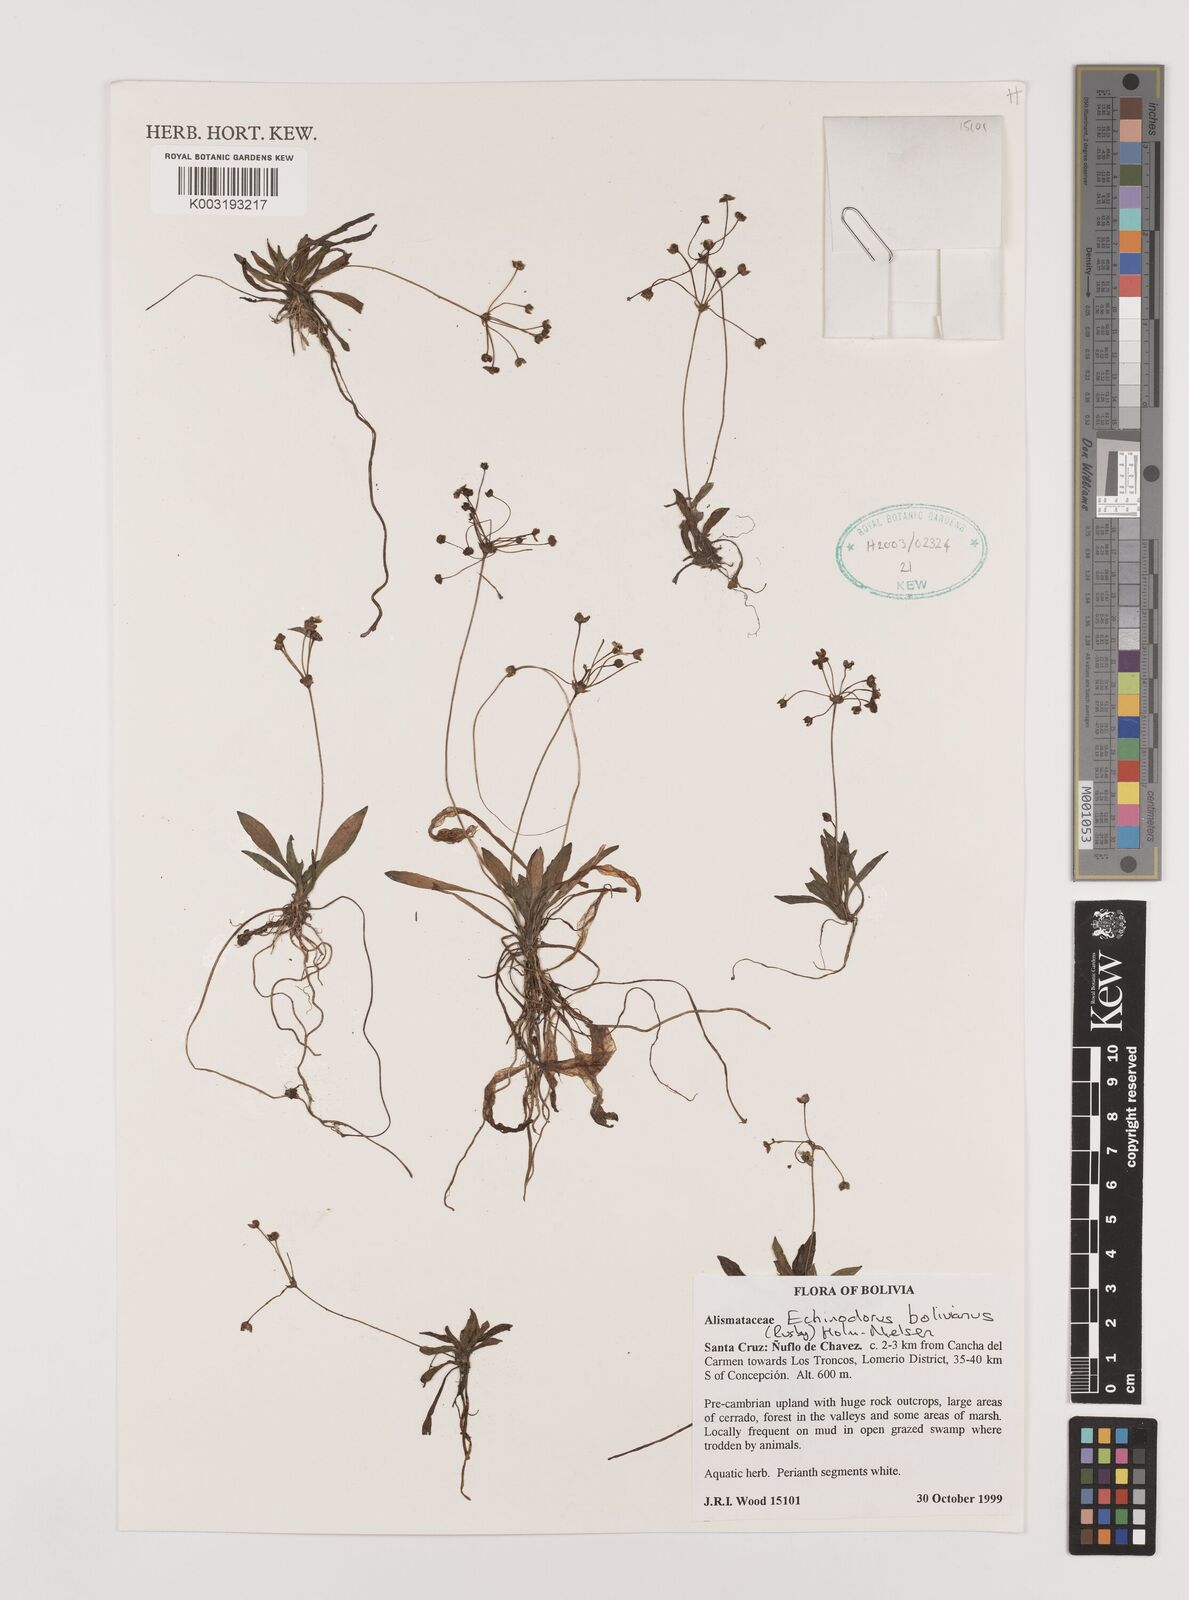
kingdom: Plantae
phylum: Tracheophyta
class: Liliopsida
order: Alismatales
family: Alismataceae
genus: Helanthium
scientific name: Helanthium bolivianum
